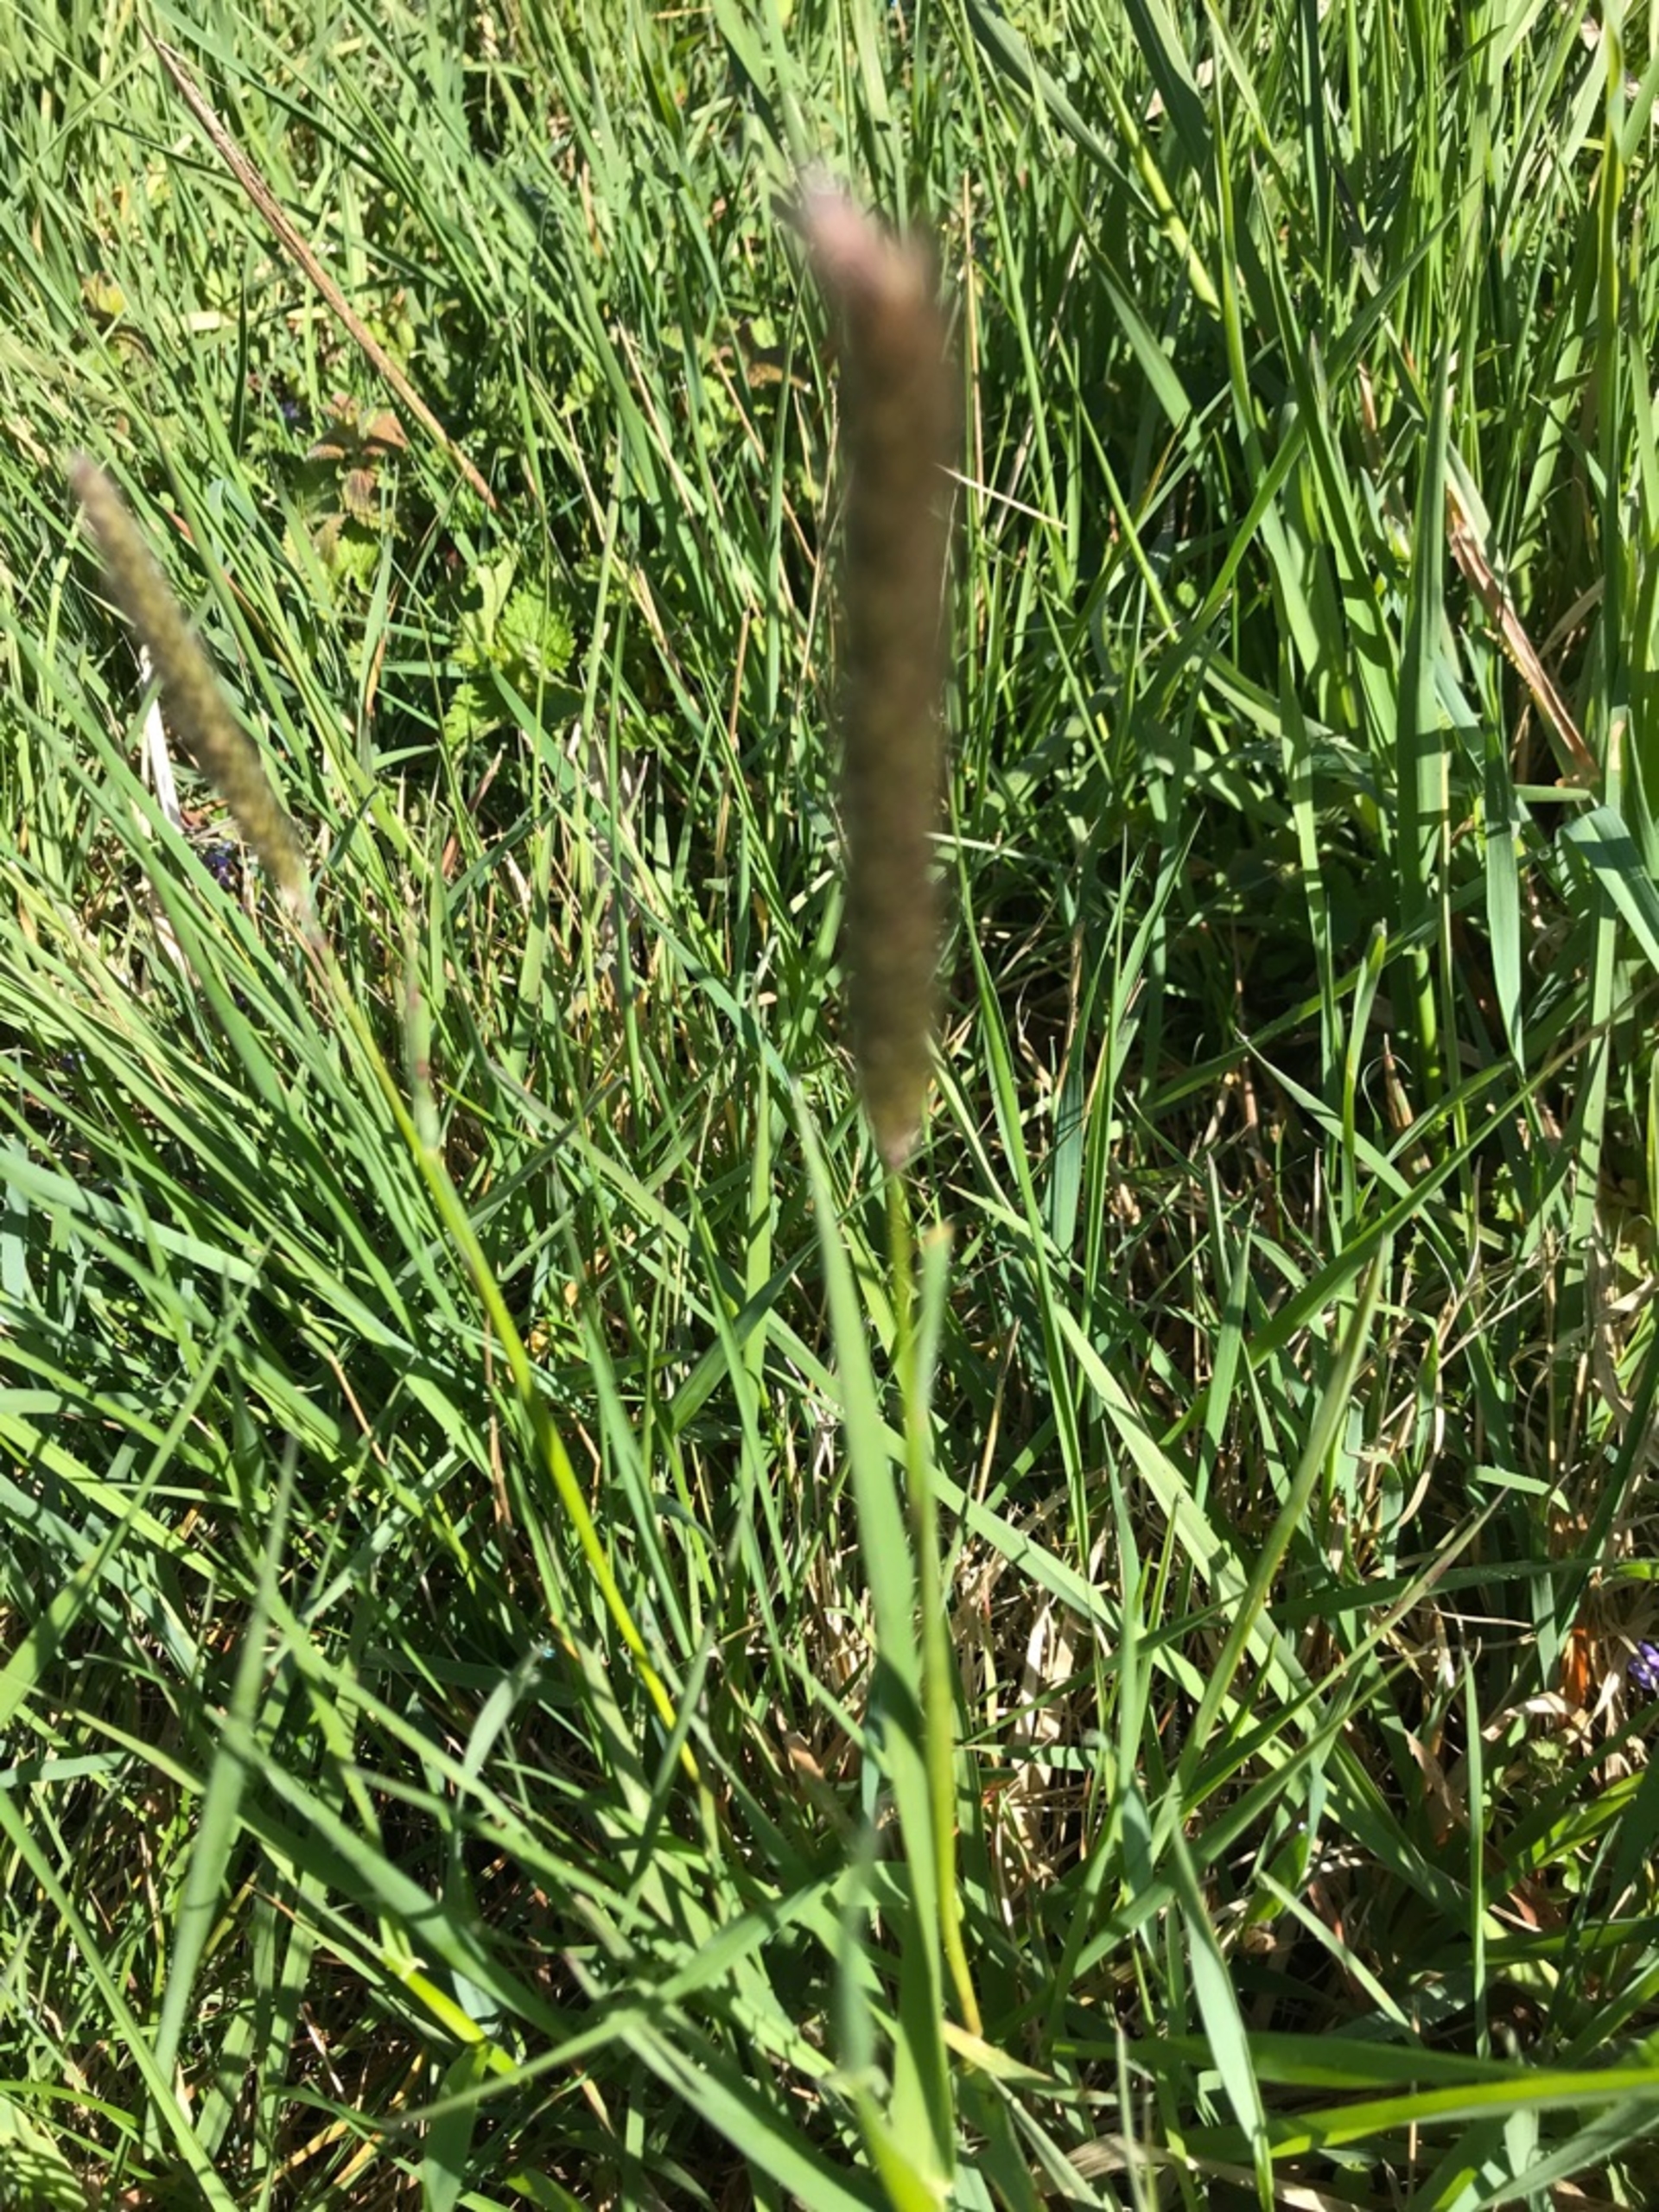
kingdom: Plantae
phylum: Tracheophyta
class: Liliopsida
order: Poales
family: Poaceae
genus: Alopecurus
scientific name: Alopecurus pratensis
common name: Eng-rævehale
